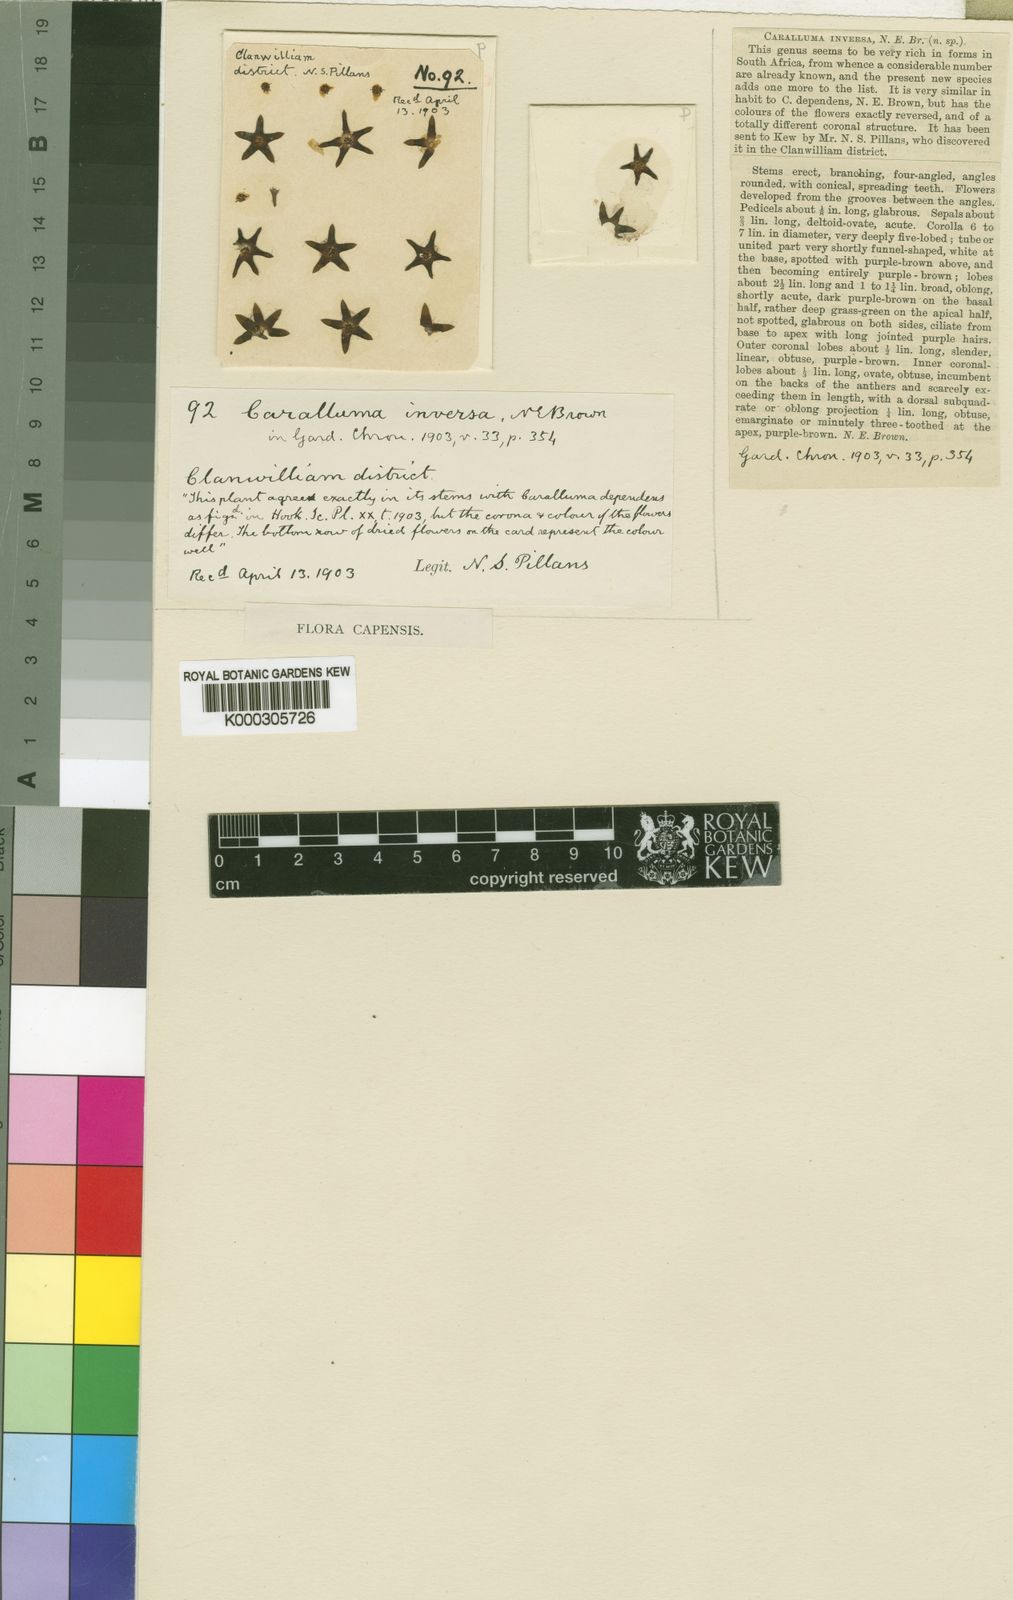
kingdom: Plantae
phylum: Tracheophyta
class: Magnoliopsida
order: Gentianales
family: Apocynaceae
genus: Ceropegia
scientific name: Ceropegia inversa
